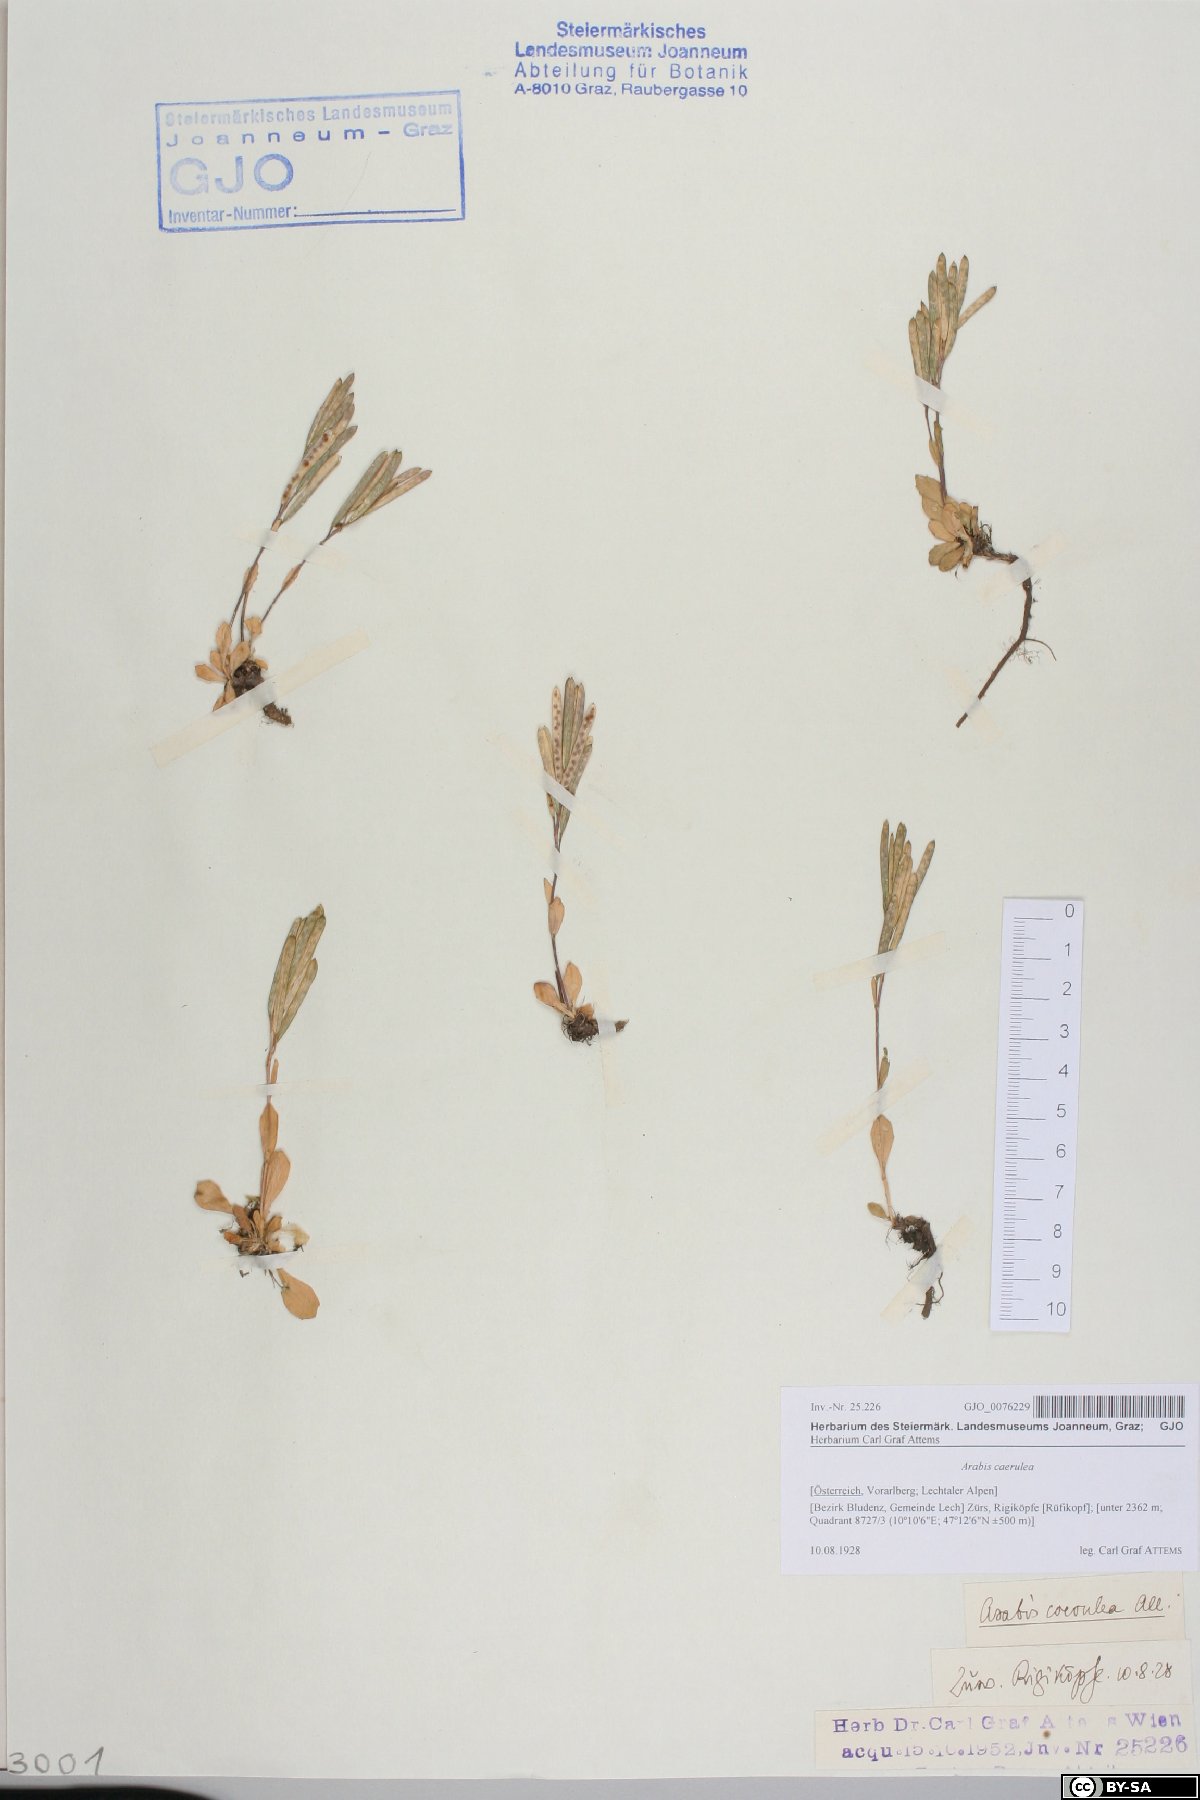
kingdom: Plantae
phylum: Tracheophyta
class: Magnoliopsida
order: Brassicales
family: Brassicaceae
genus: Arabis
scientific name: Arabis caerulea
